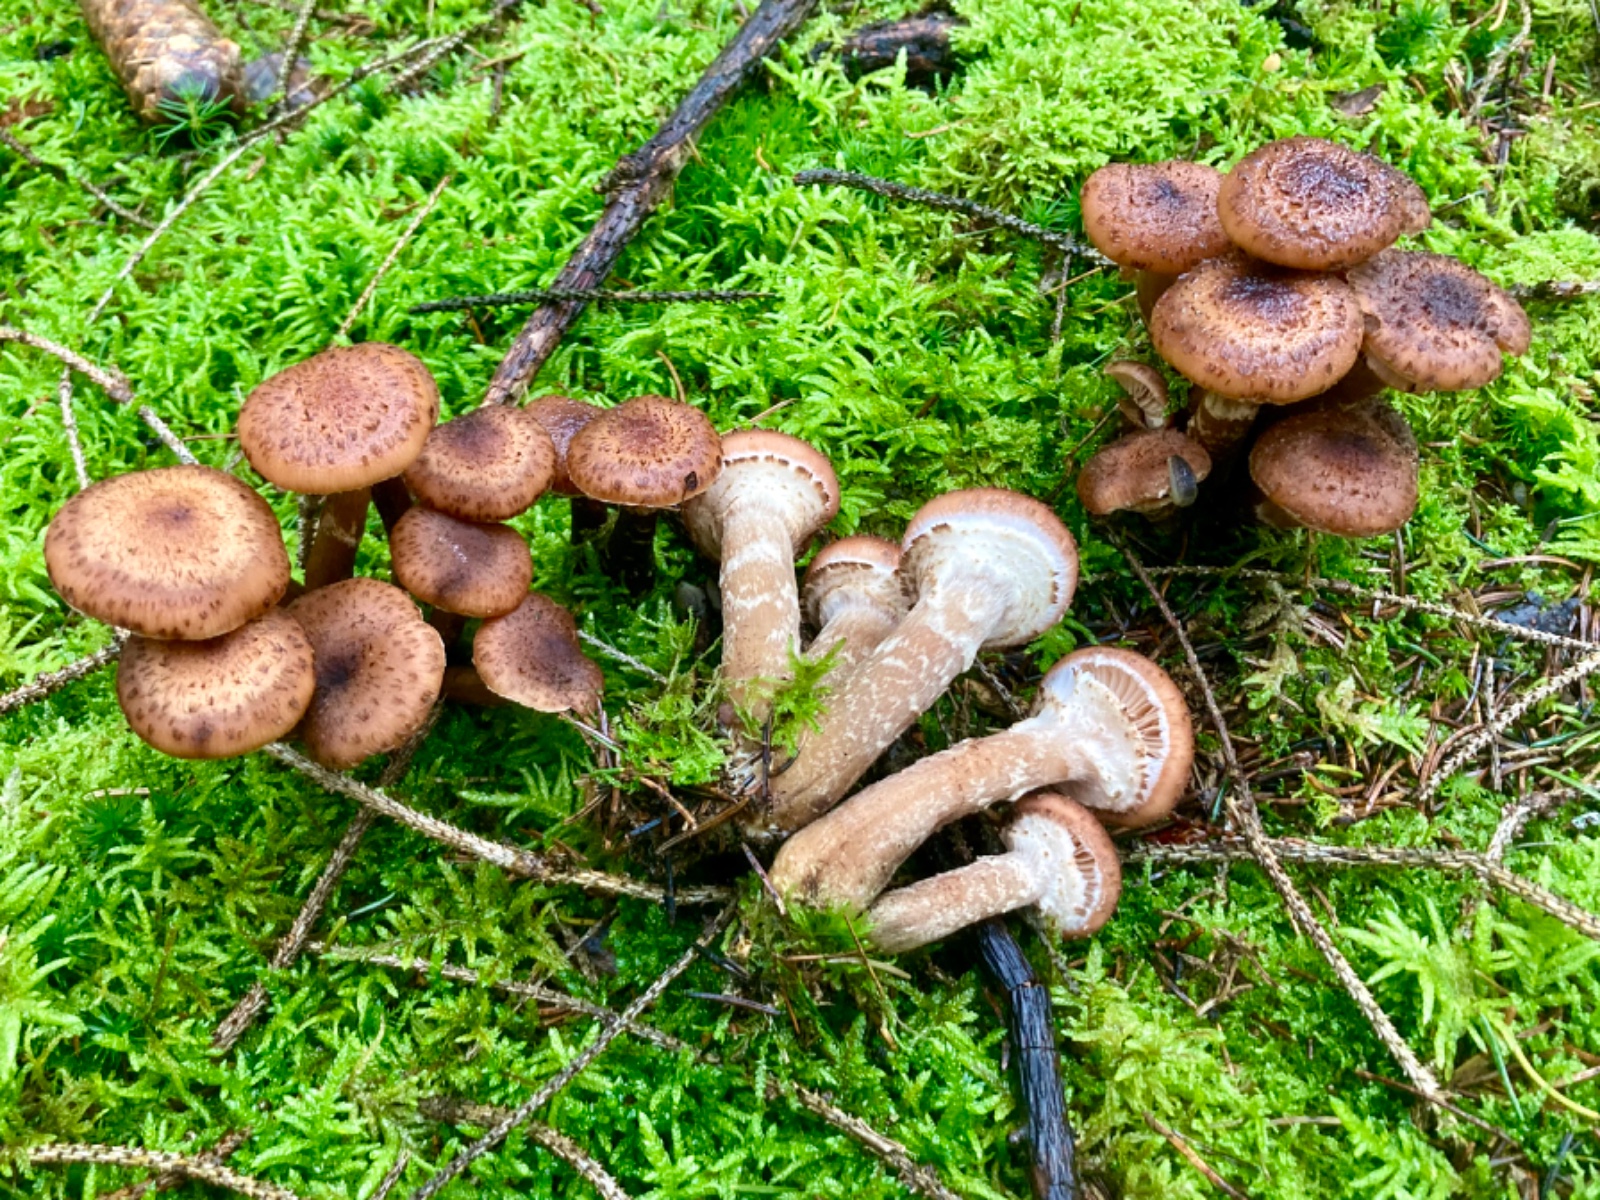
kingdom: Fungi
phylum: Basidiomycota
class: Agaricomycetes
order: Agaricales
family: Physalacriaceae
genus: Armillaria
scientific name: Armillaria ostoyae
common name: mørk honningsvamp
